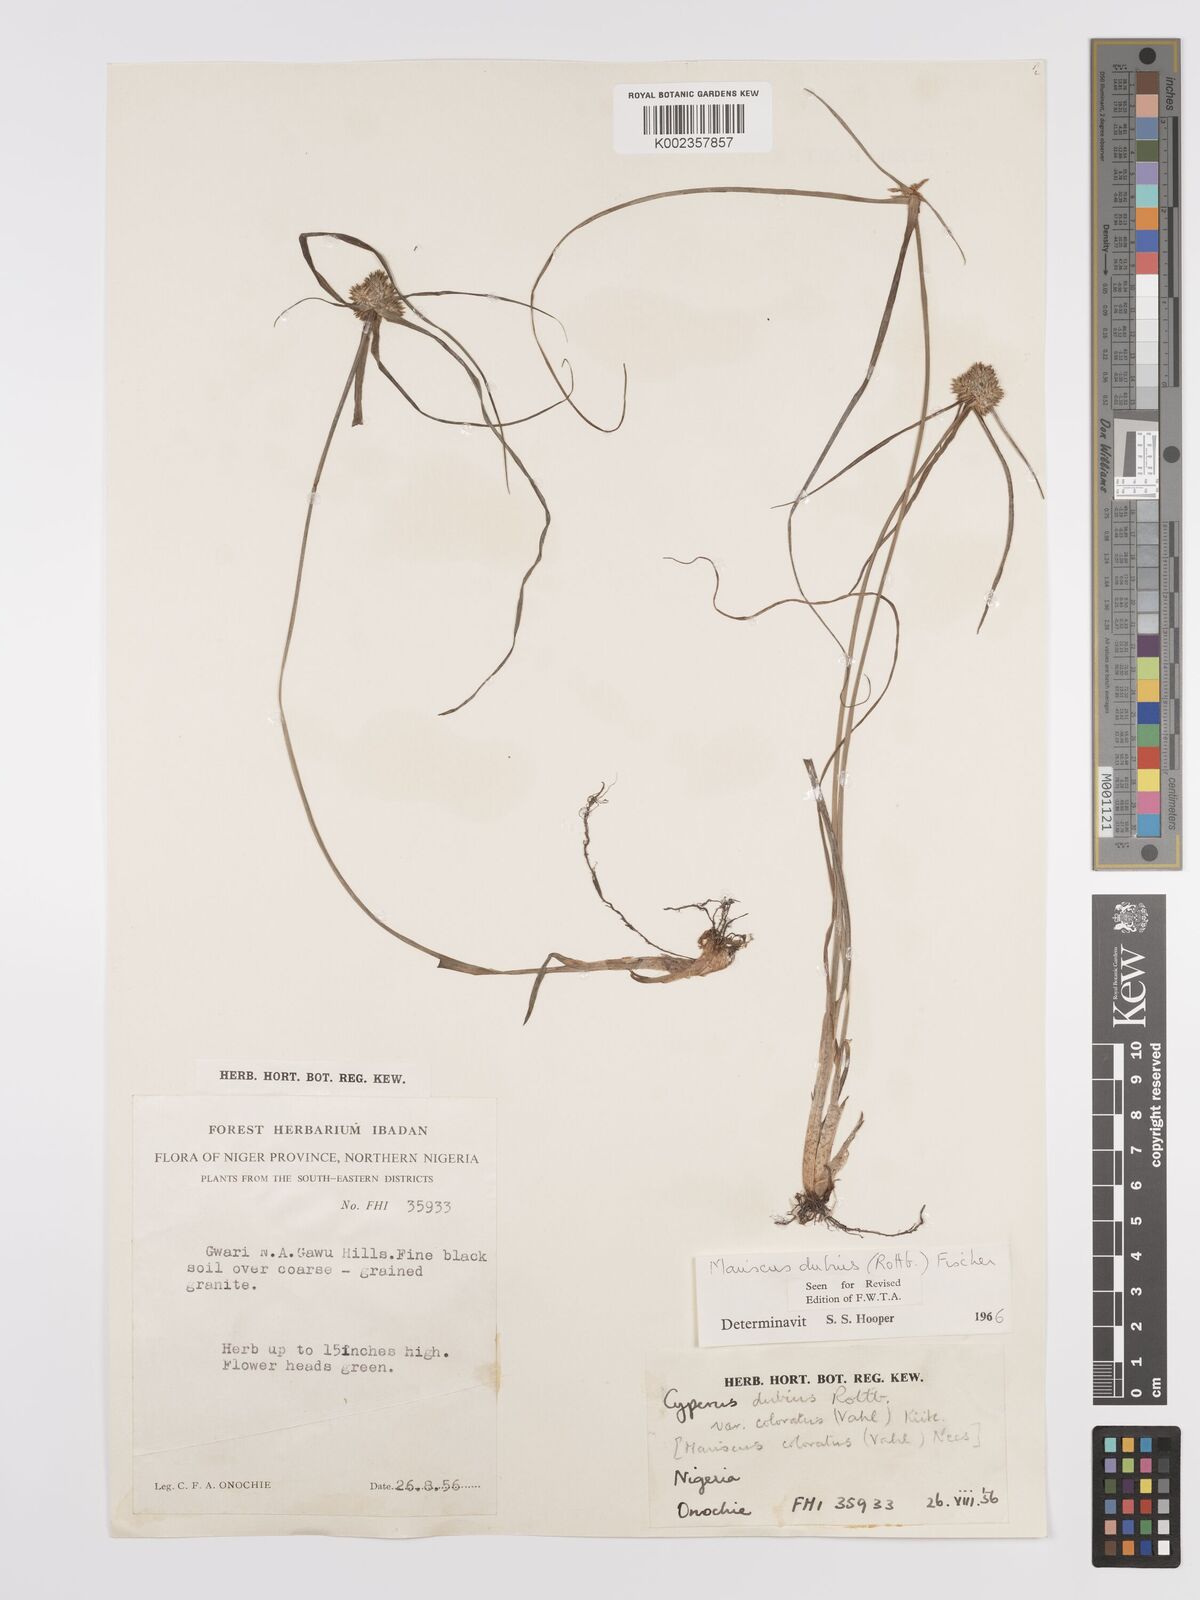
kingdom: Plantae
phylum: Tracheophyta
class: Liliopsida
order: Poales
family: Cyperaceae
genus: Cyperus
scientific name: Cyperus dubius
